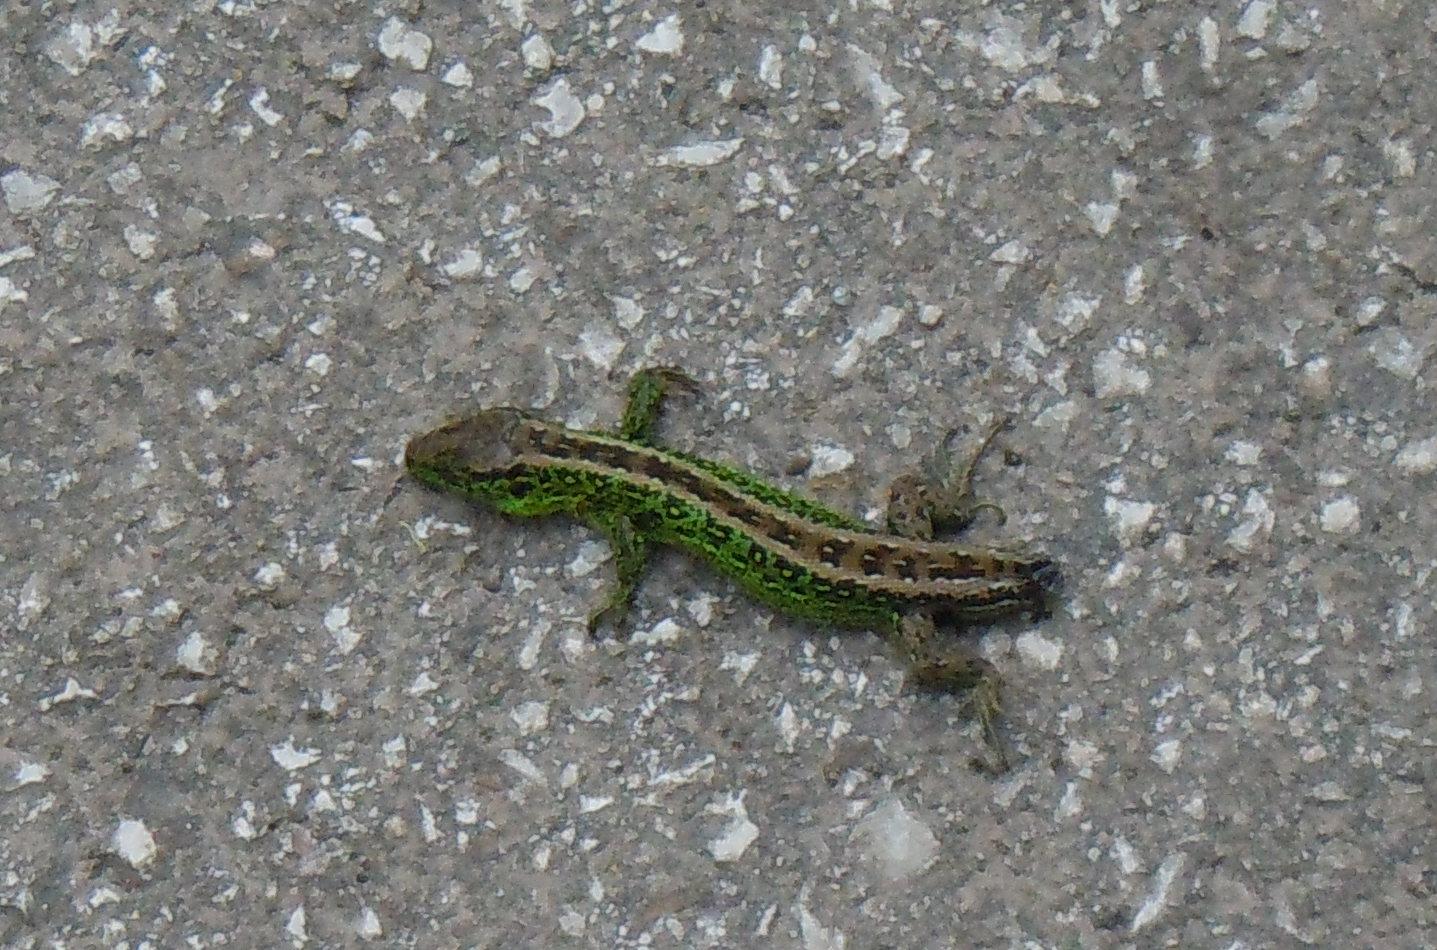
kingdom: Animalia
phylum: Chordata
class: Squamata
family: Lacertidae
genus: Lacerta
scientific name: Lacerta agilis
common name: Sand lizard
